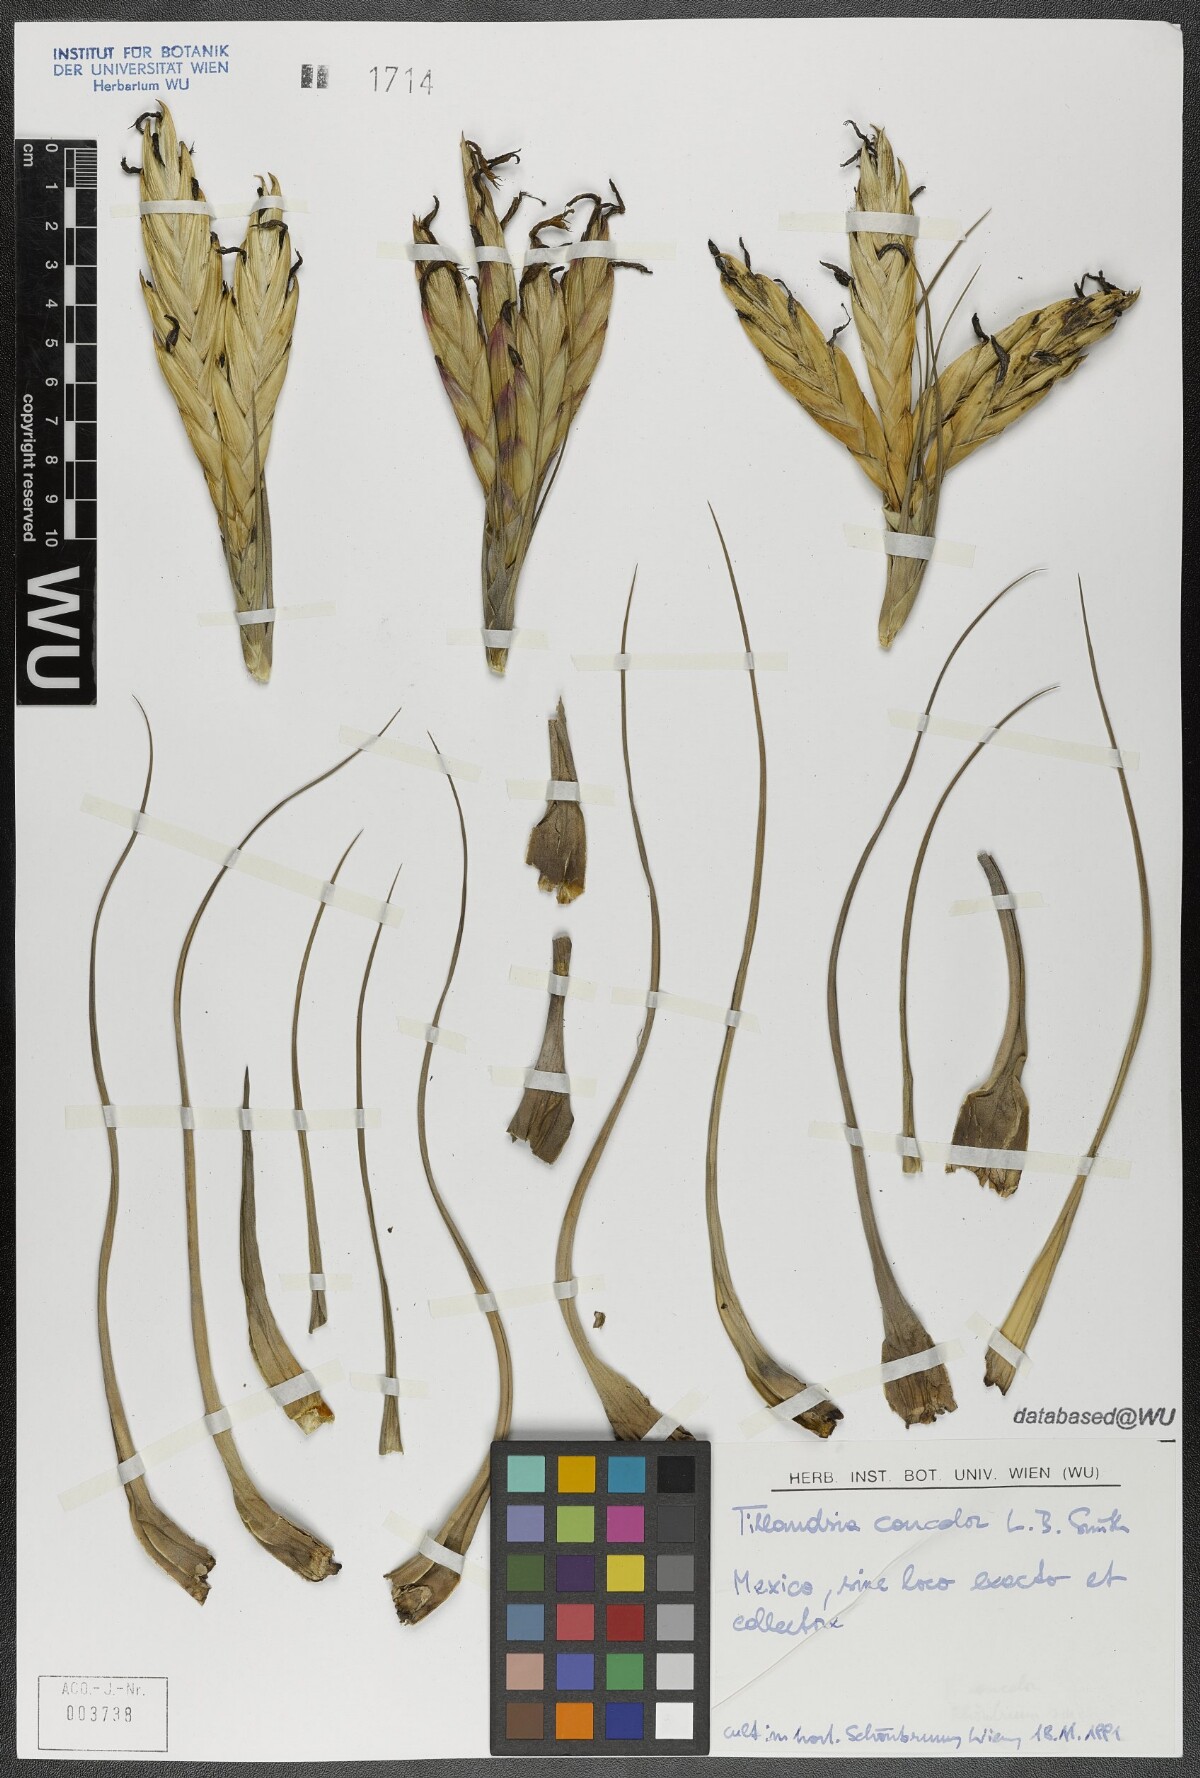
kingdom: Plantae
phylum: Tracheophyta
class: Liliopsida
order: Poales
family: Bromeliaceae
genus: Tillandsia
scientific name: Tillandsia concolor
